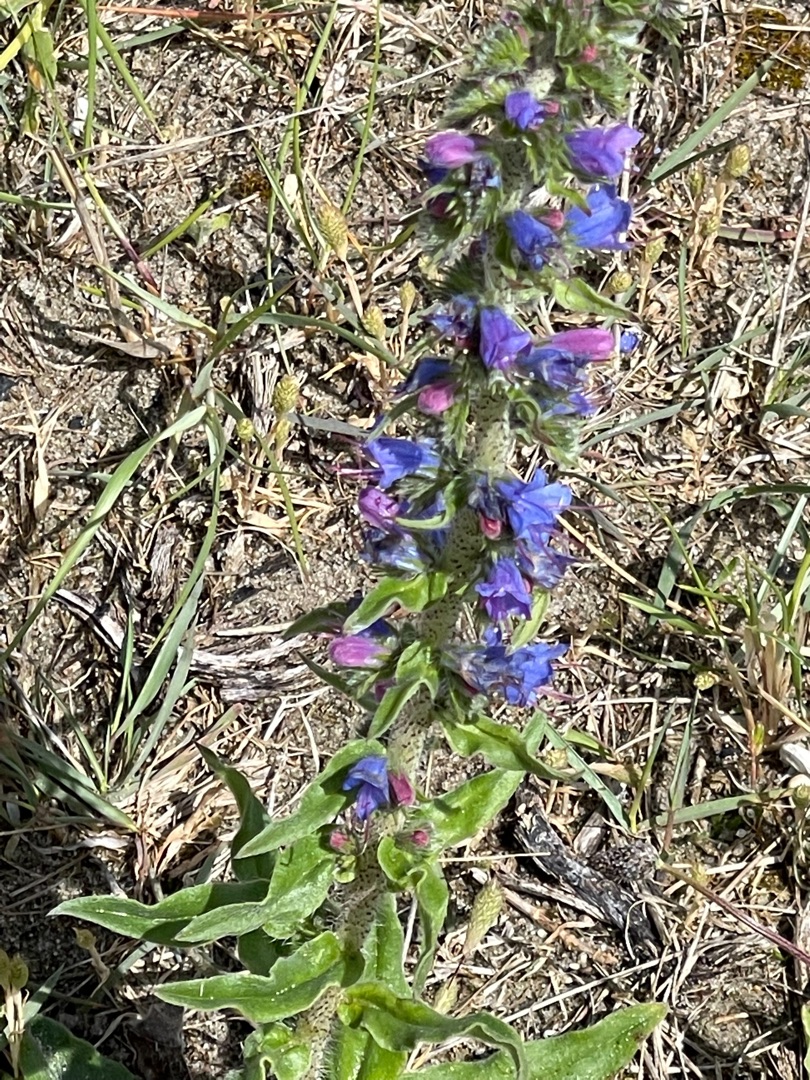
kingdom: Plantae
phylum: Tracheophyta
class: Magnoliopsida
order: Boraginales
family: Boraginaceae
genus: Echium
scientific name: Echium vulgare
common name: Slangehoved
